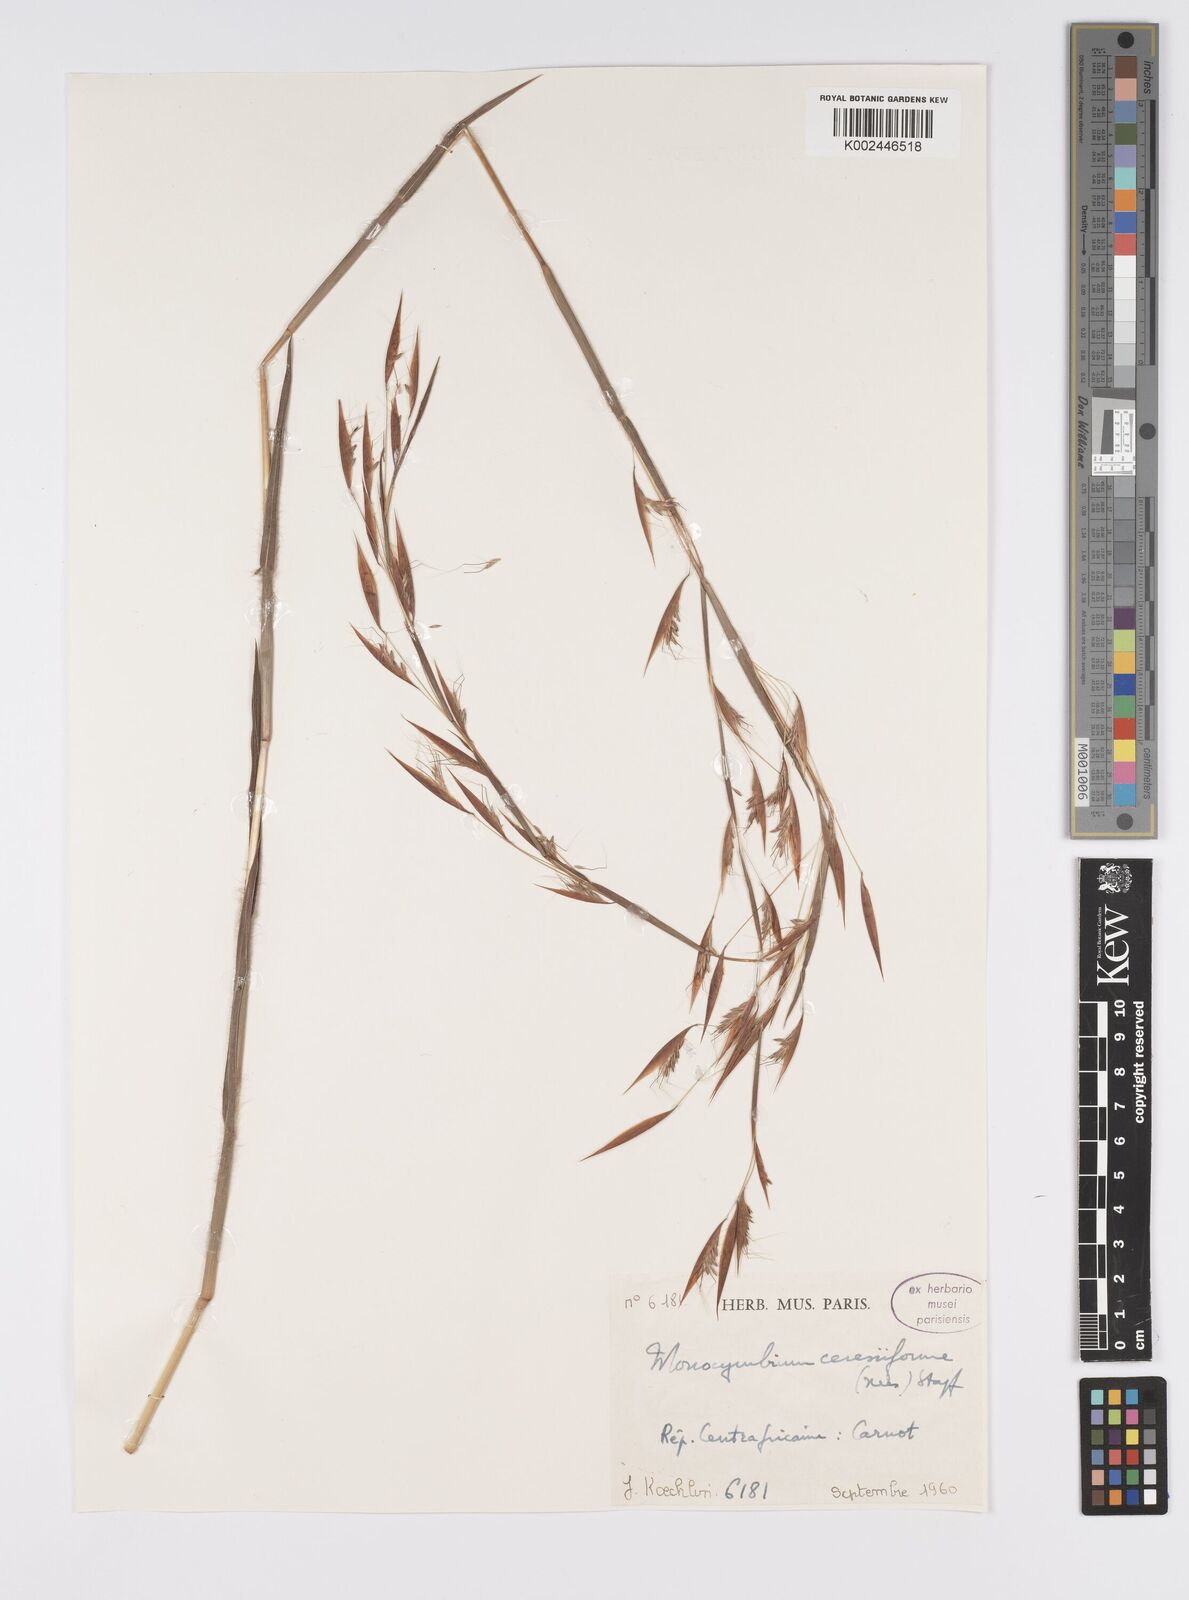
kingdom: Plantae
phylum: Tracheophyta
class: Liliopsida
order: Poales
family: Poaceae
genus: Monocymbium
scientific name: Monocymbium ceresiiforme
